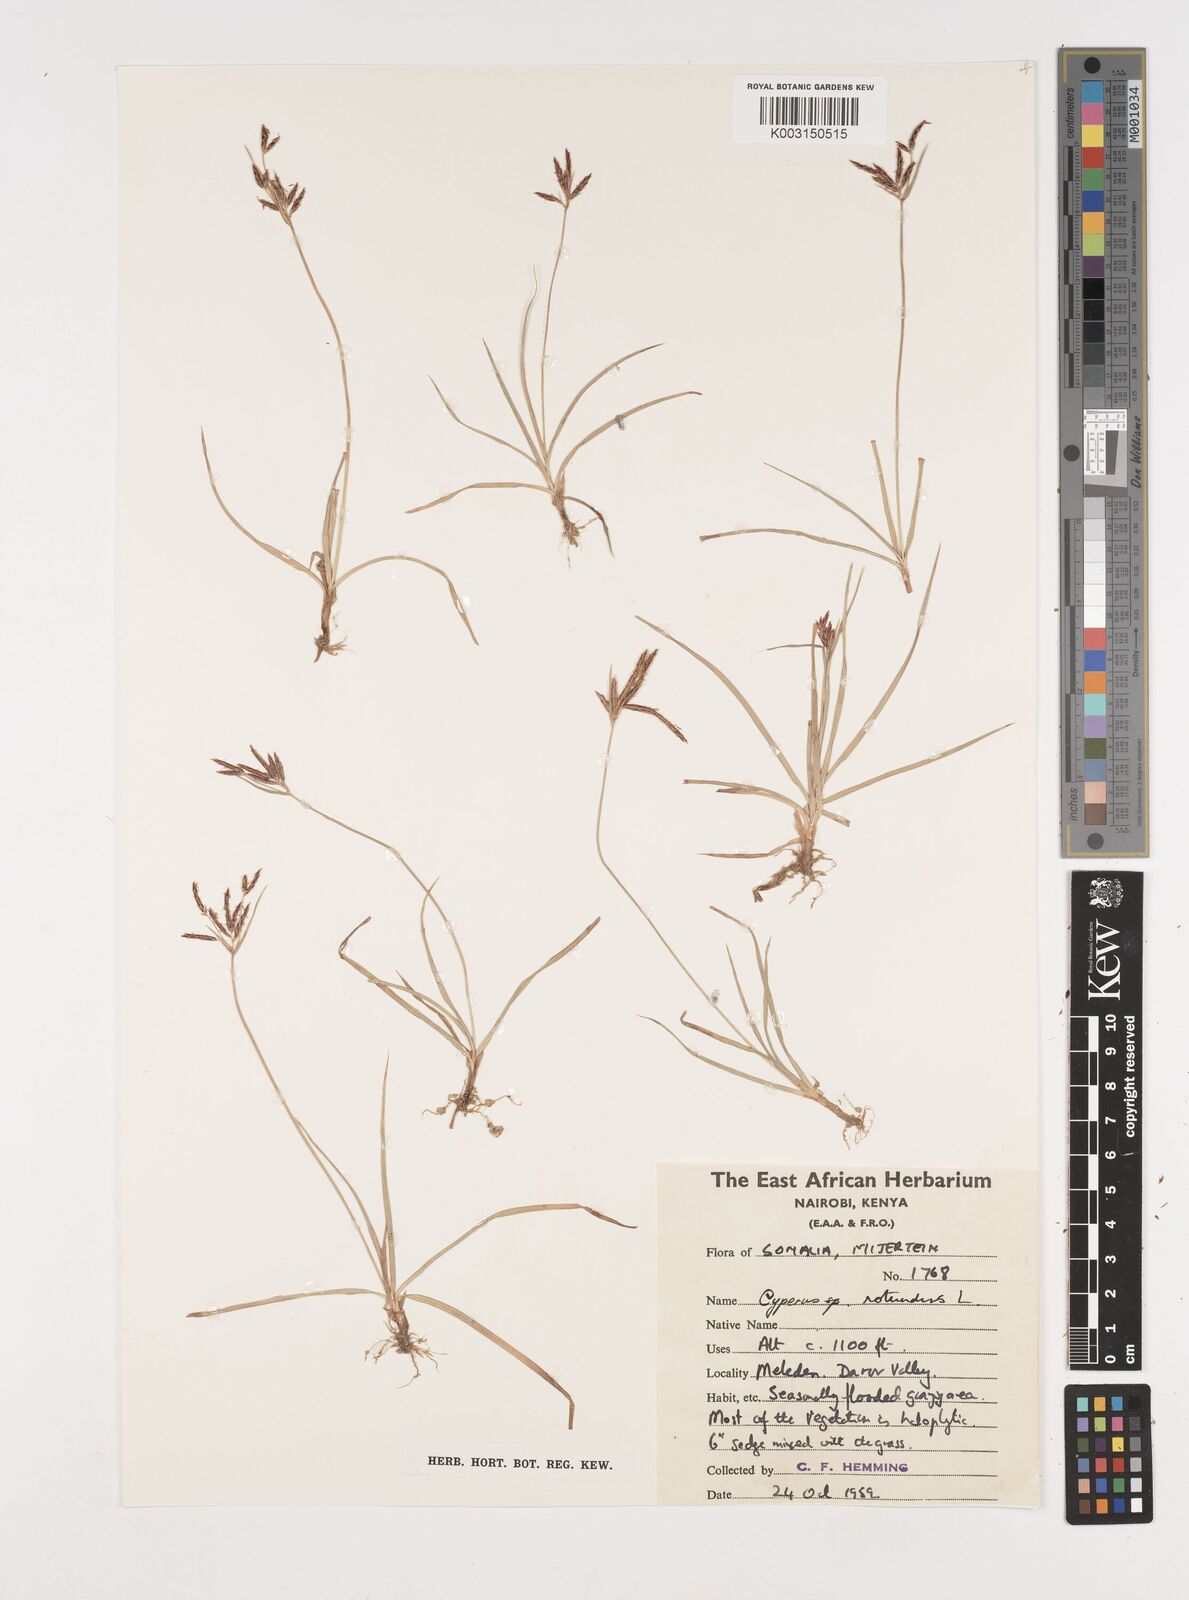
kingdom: Plantae
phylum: Tracheophyta
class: Liliopsida
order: Poales
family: Cyperaceae
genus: Cyperus
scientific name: Cyperus rotundus
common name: Nutgrass
